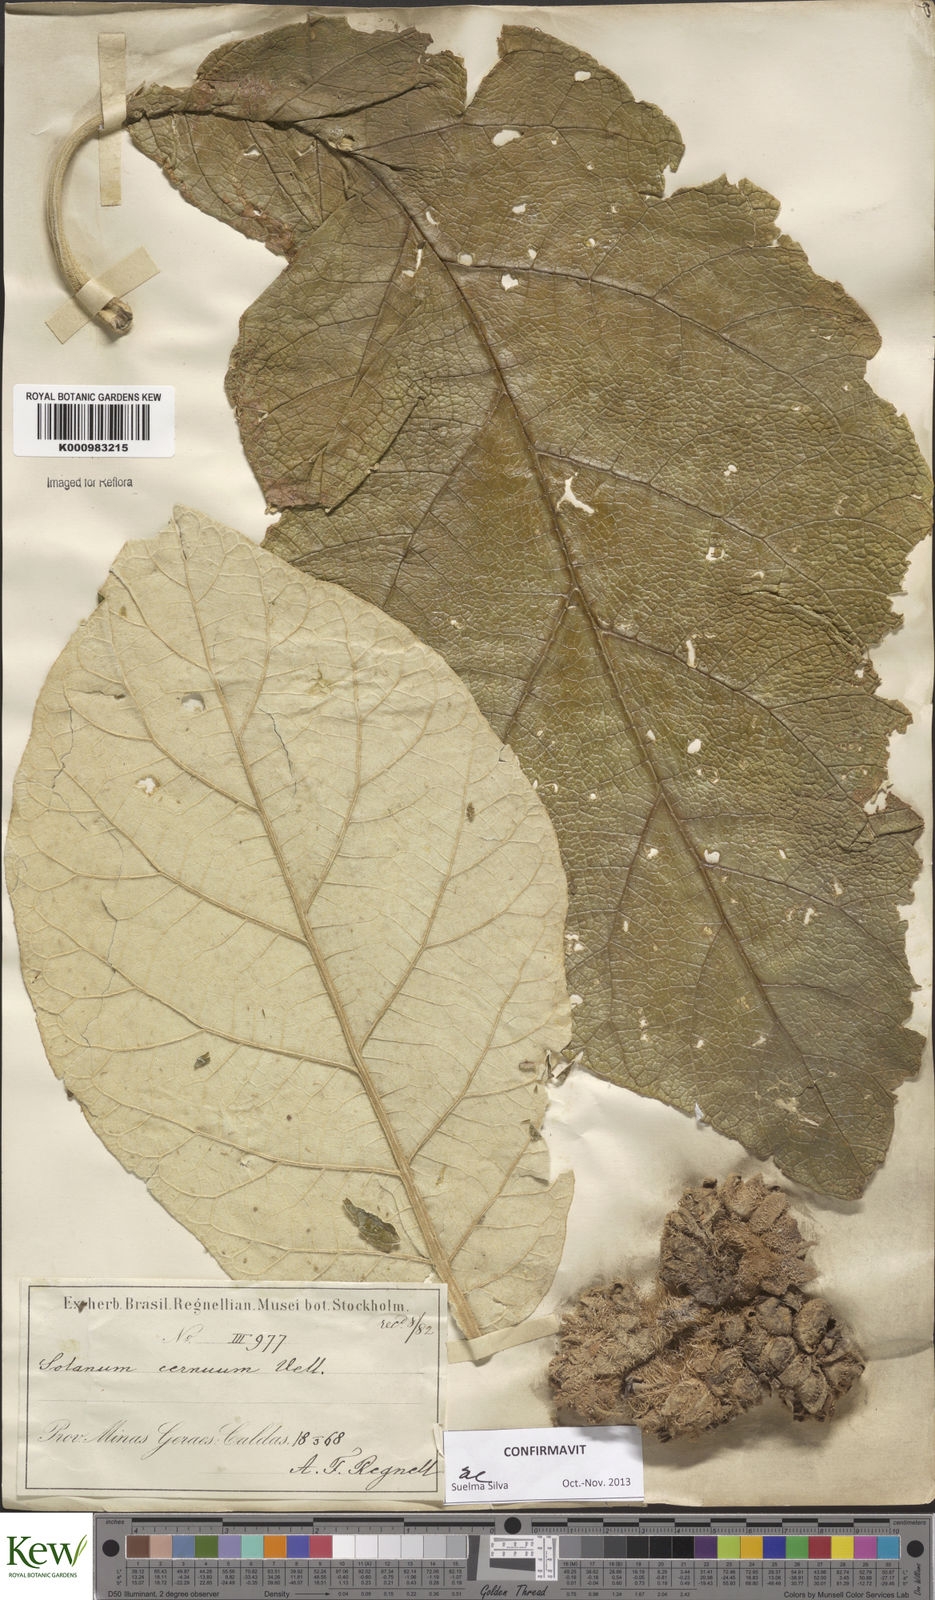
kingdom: Plantae
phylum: Tracheophyta
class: Magnoliopsida
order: Solanales
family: Solanaceae
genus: Solanum
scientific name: Solanum cernuum
